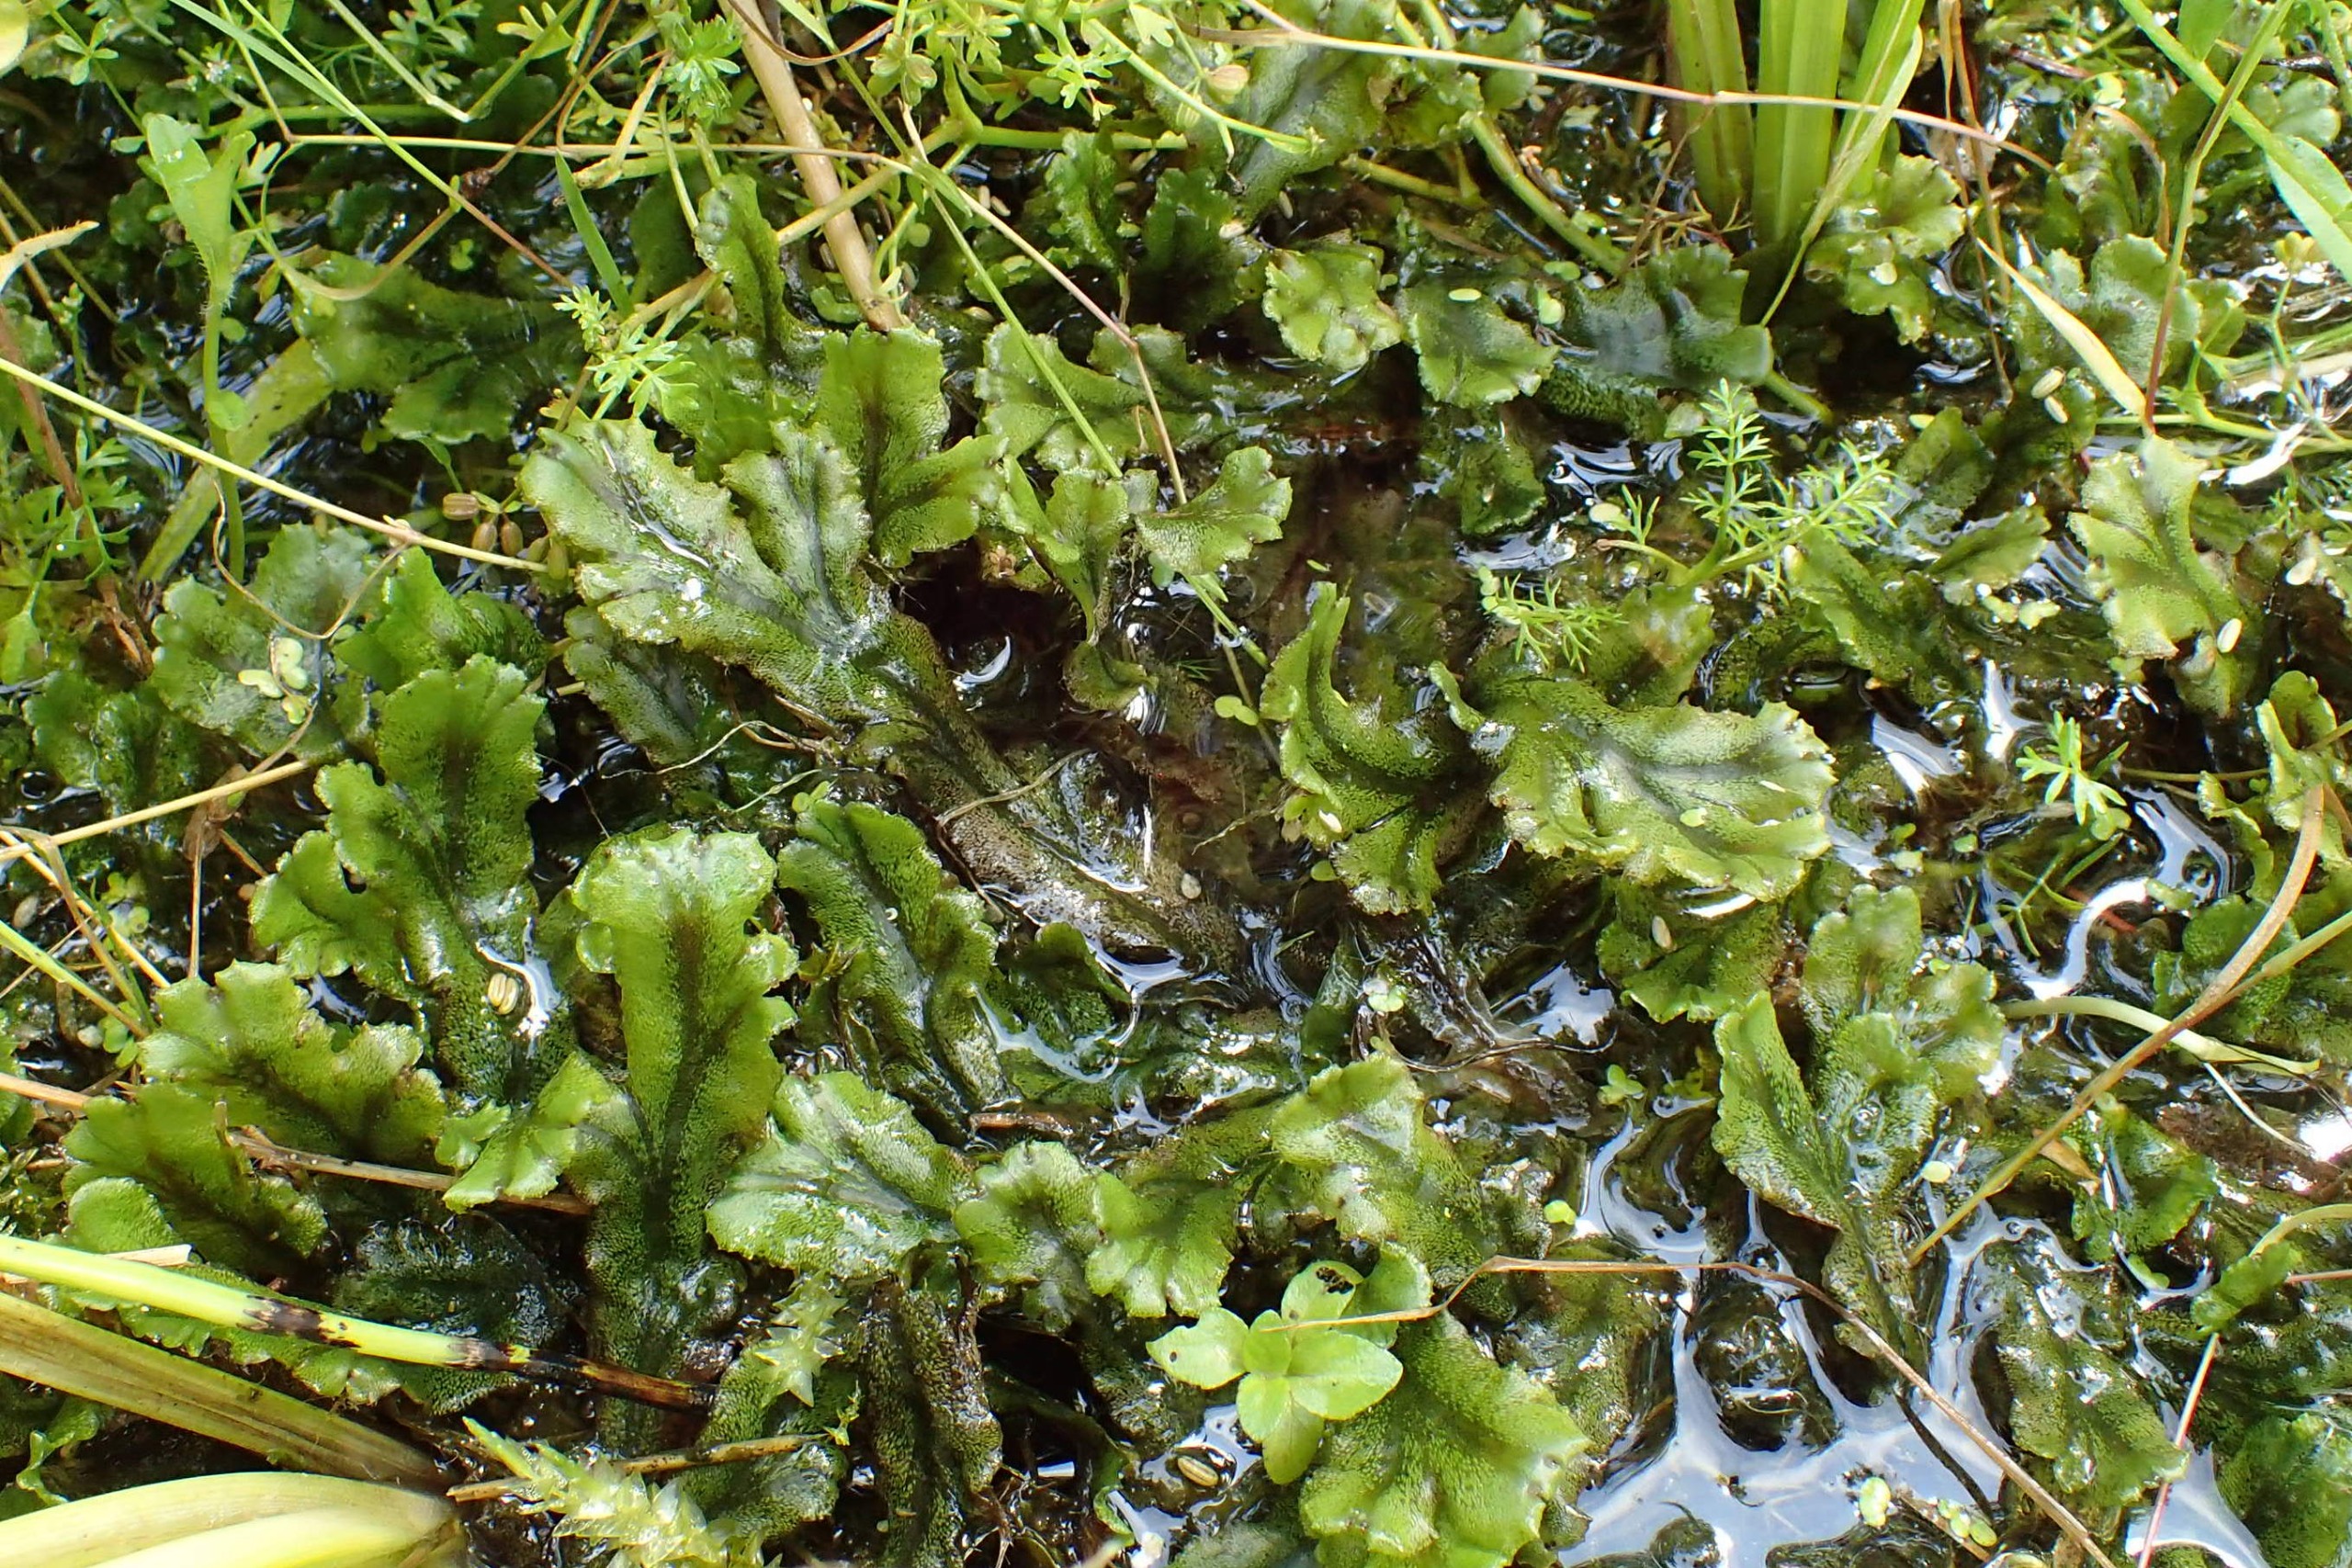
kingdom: Plantae
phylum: Marchantiophyta
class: Marchantiopsida
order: Marchantiales
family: Marchantiaceae
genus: Marchantia
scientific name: Marchantia polymorpha
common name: Mose-lungemos
